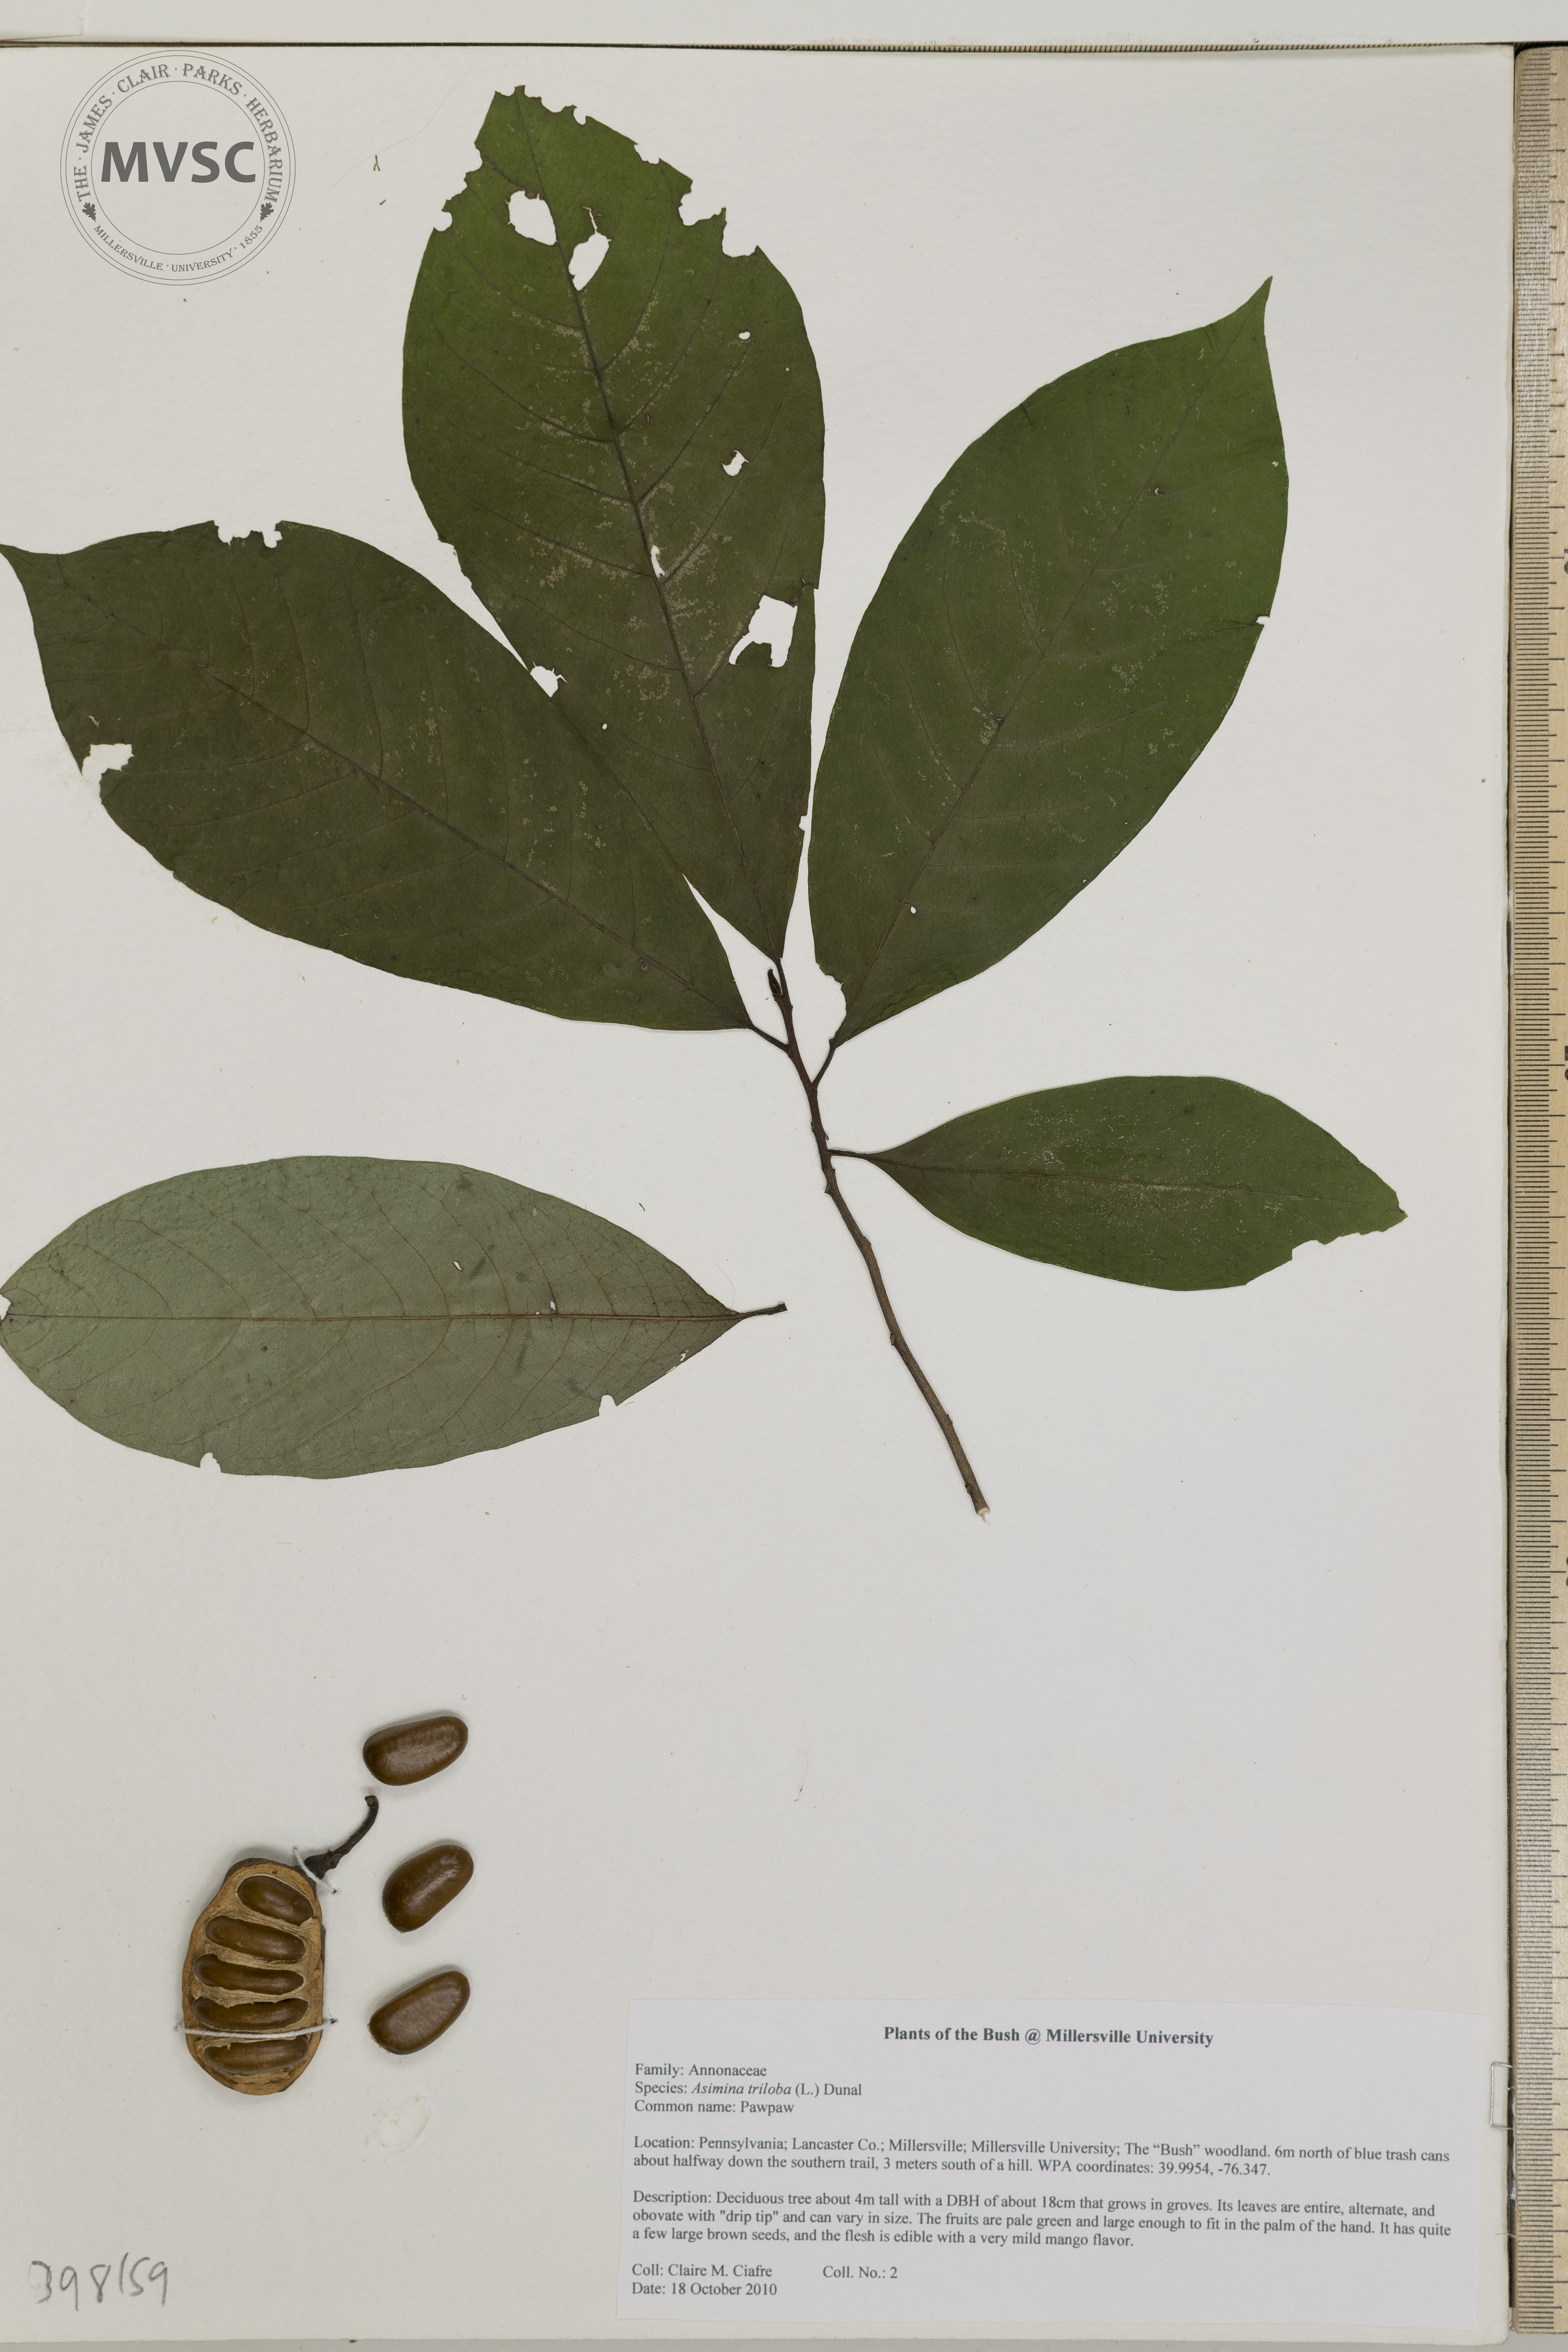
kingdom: Plantae
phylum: Tracheophyta
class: Magnoliopsida
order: Magnoliales
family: Annonaceae
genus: Asimina
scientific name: Asimina triloba
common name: Pawpaw
